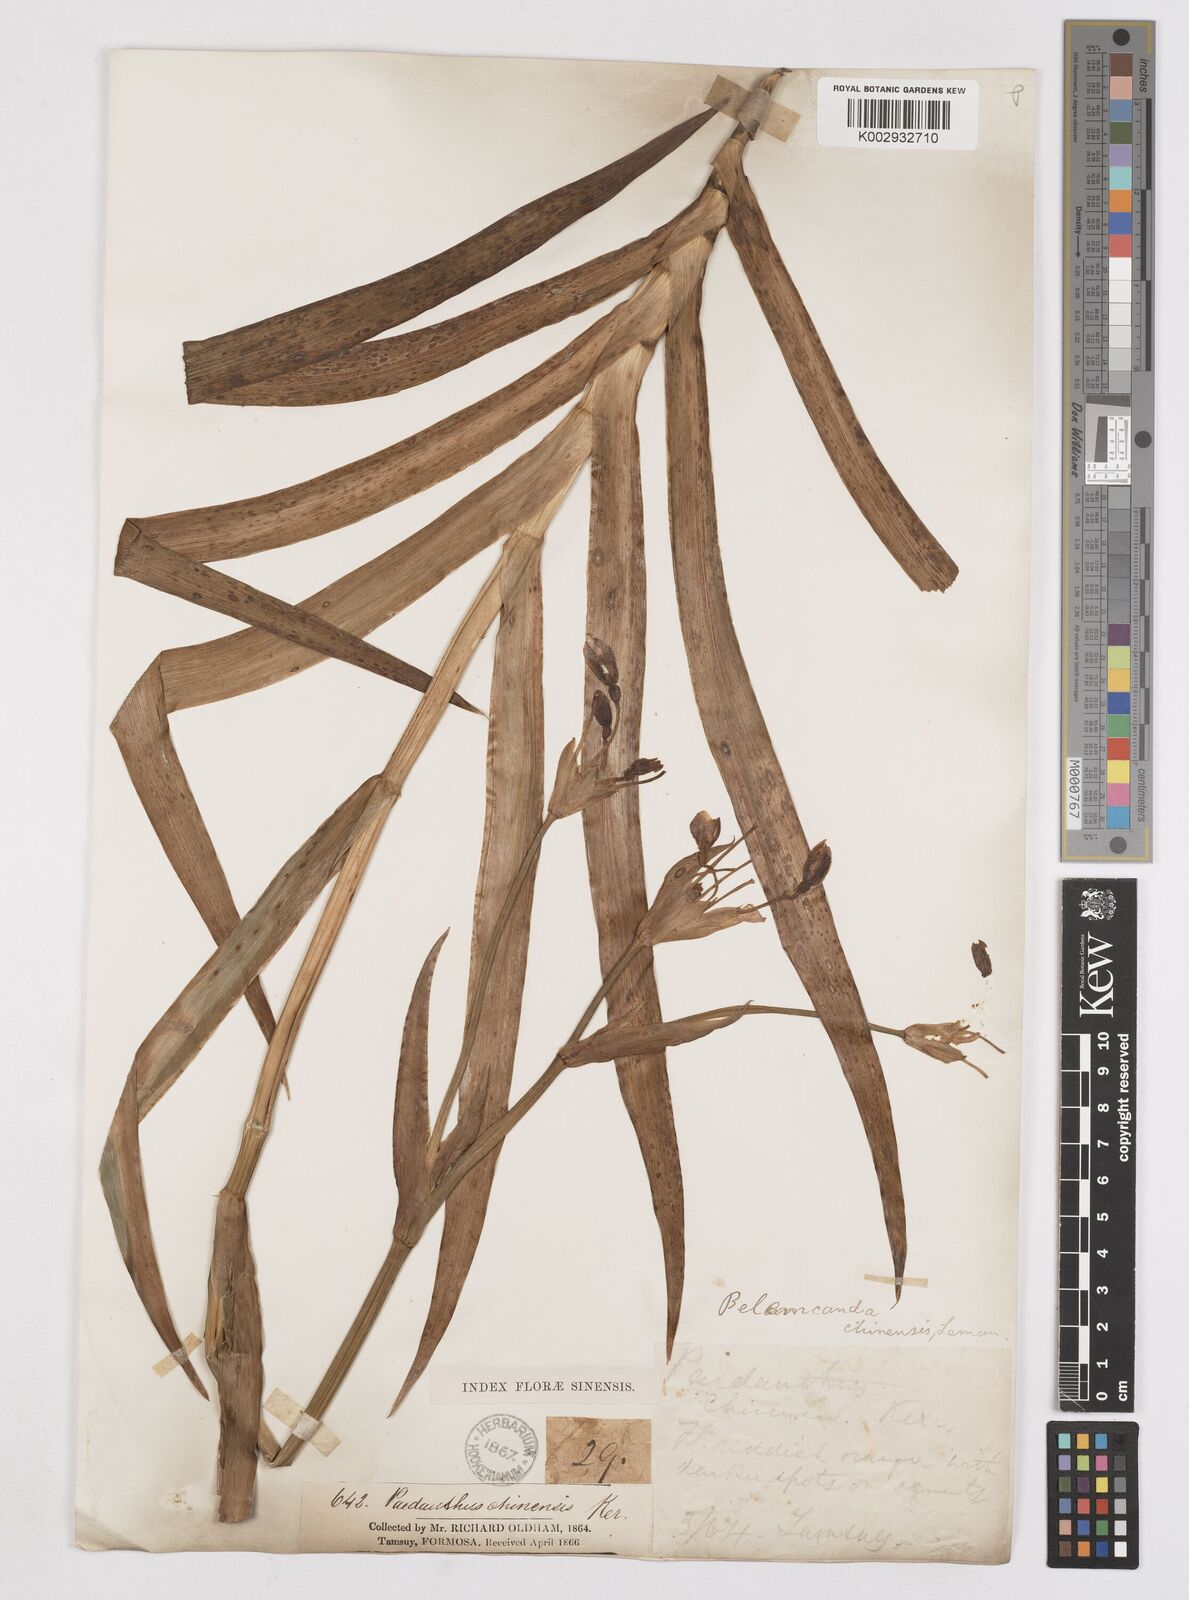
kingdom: Plantae
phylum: Tracheophyta
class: Liliopsida
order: Asparagales
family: Iridaceae
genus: Iris
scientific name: Iris
